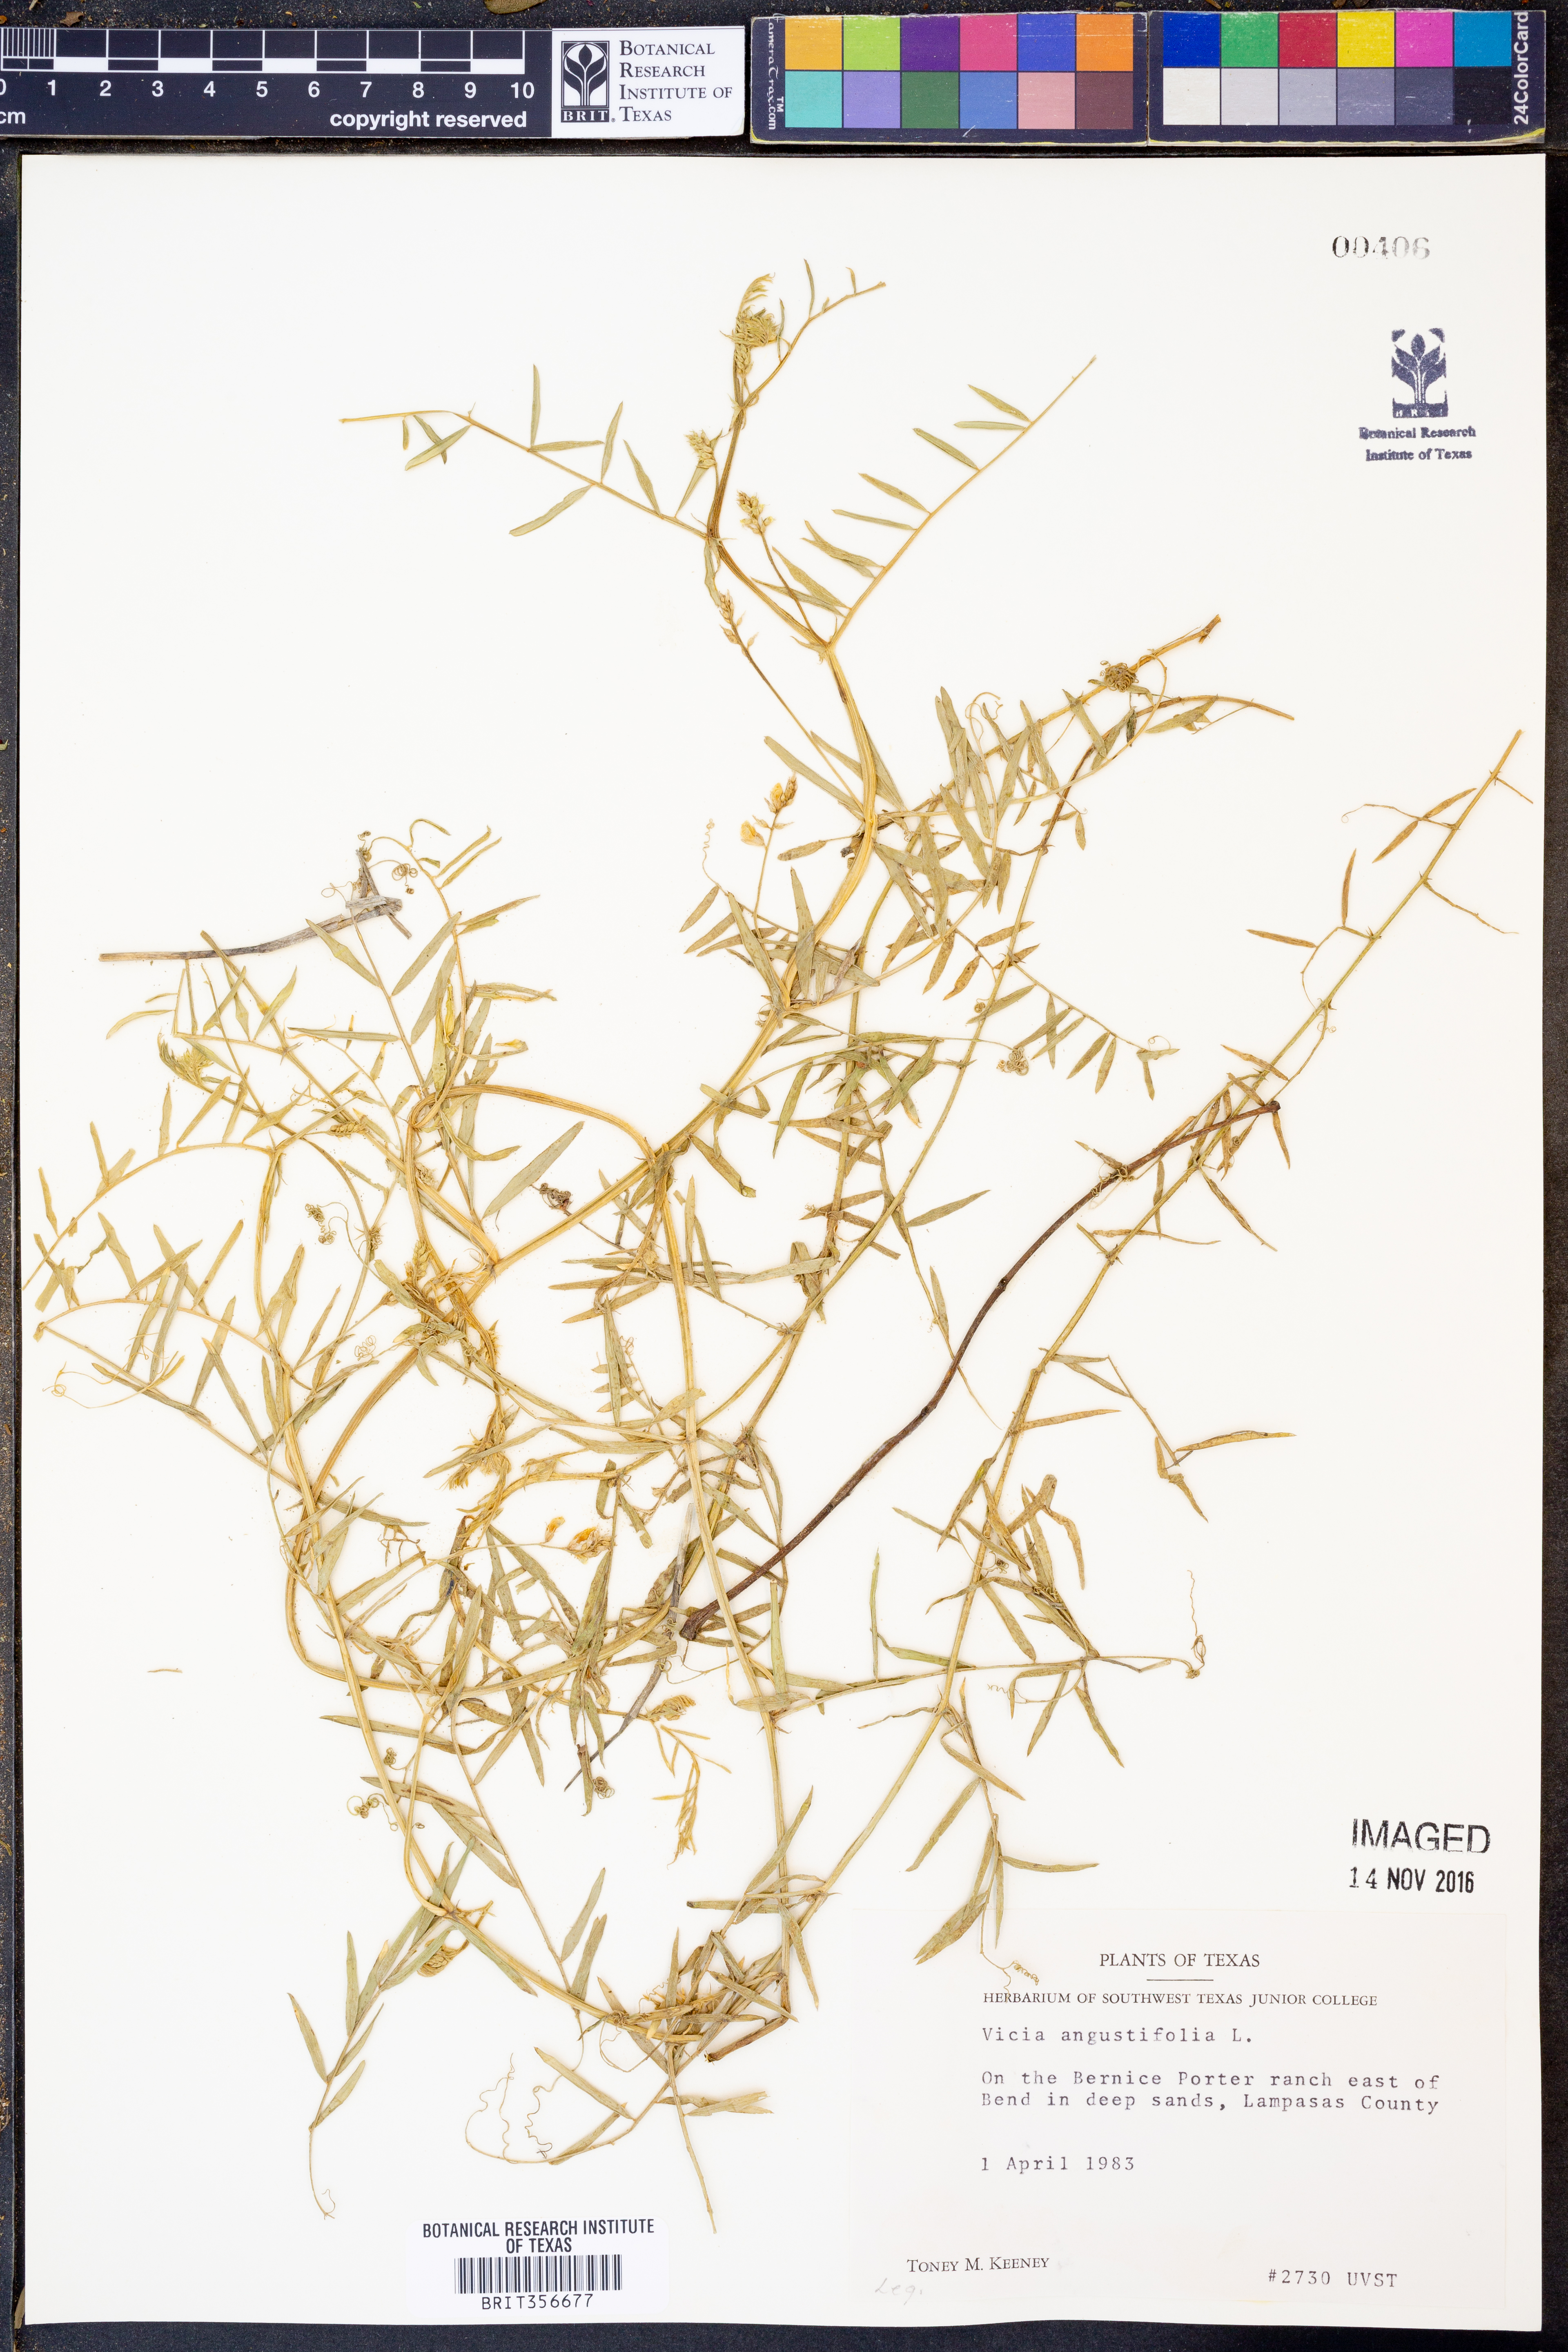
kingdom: Plantae
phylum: Tracheophyta
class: Magnoliopsida
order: Fabales
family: Fabaceae
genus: Vicia
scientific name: Vicia sativa
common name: Garden vetch
